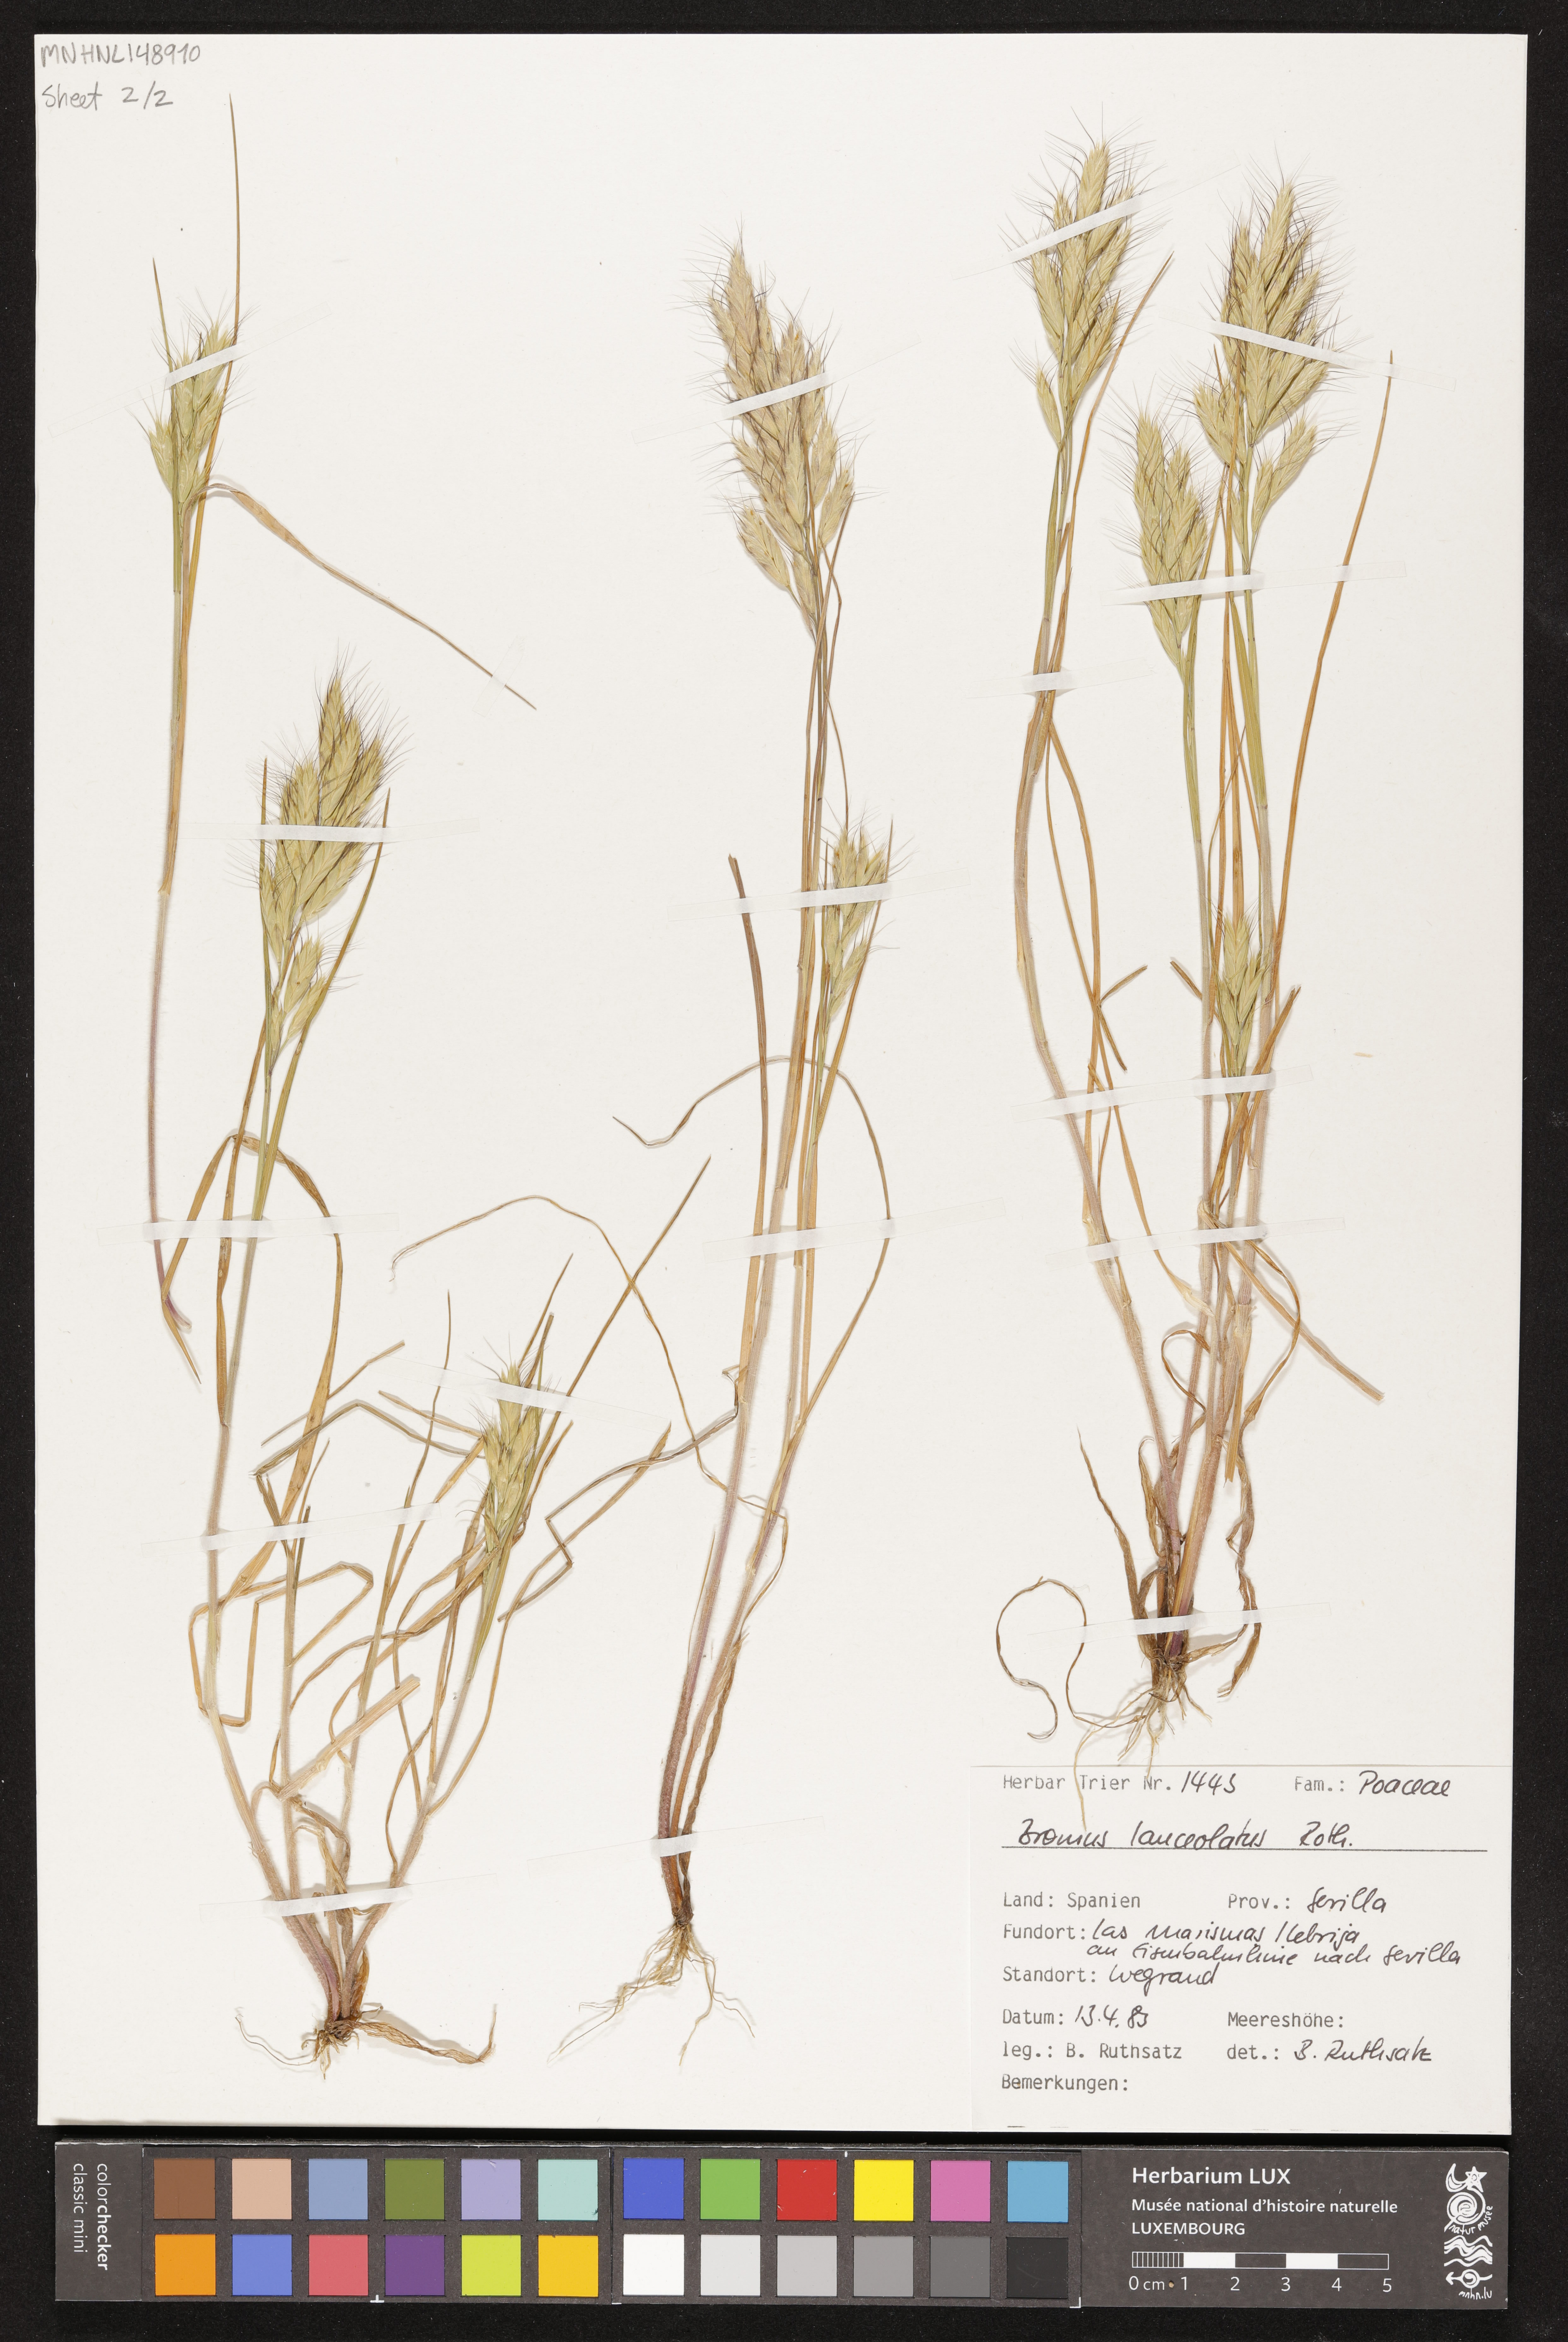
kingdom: Plantae
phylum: Tracheophyta
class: Liliopsida
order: Poales
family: Poaceae
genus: Bromus
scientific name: Bromus lanceolatus
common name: Mediterranean brome
